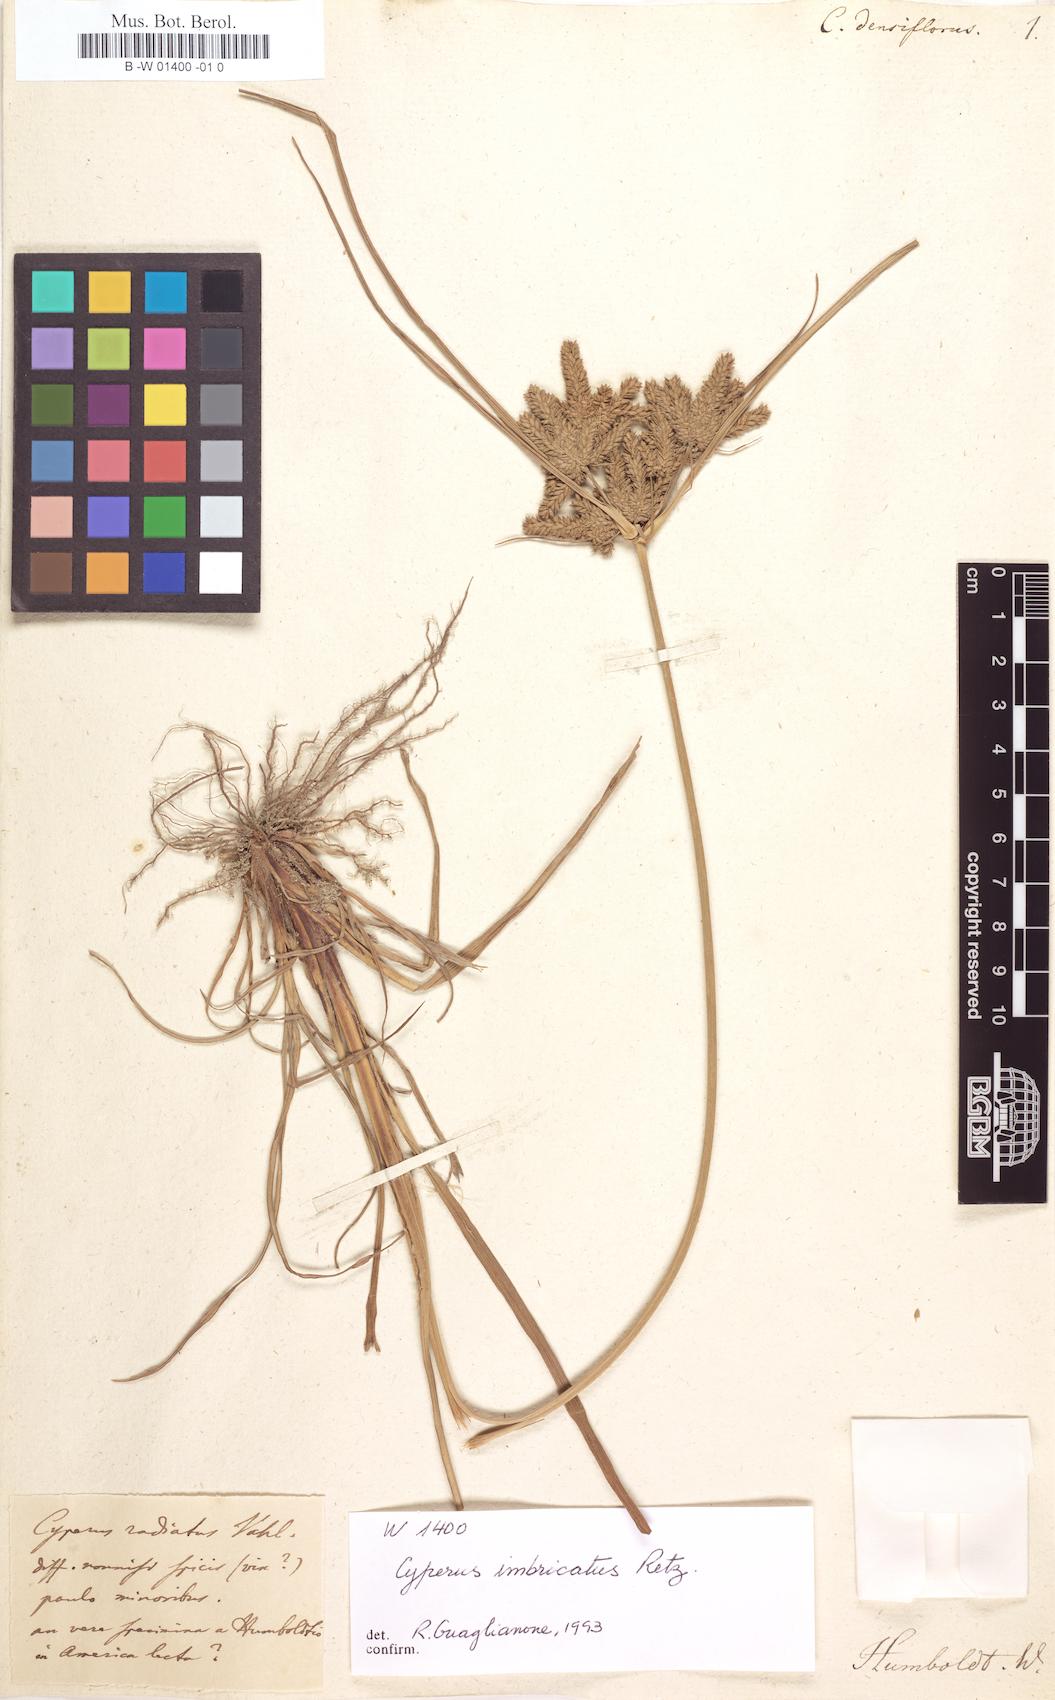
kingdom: Plantae
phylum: Tracheophyta
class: Liliopsida
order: Poales
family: Cyperaceae
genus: Cyperus
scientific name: Cyperus
